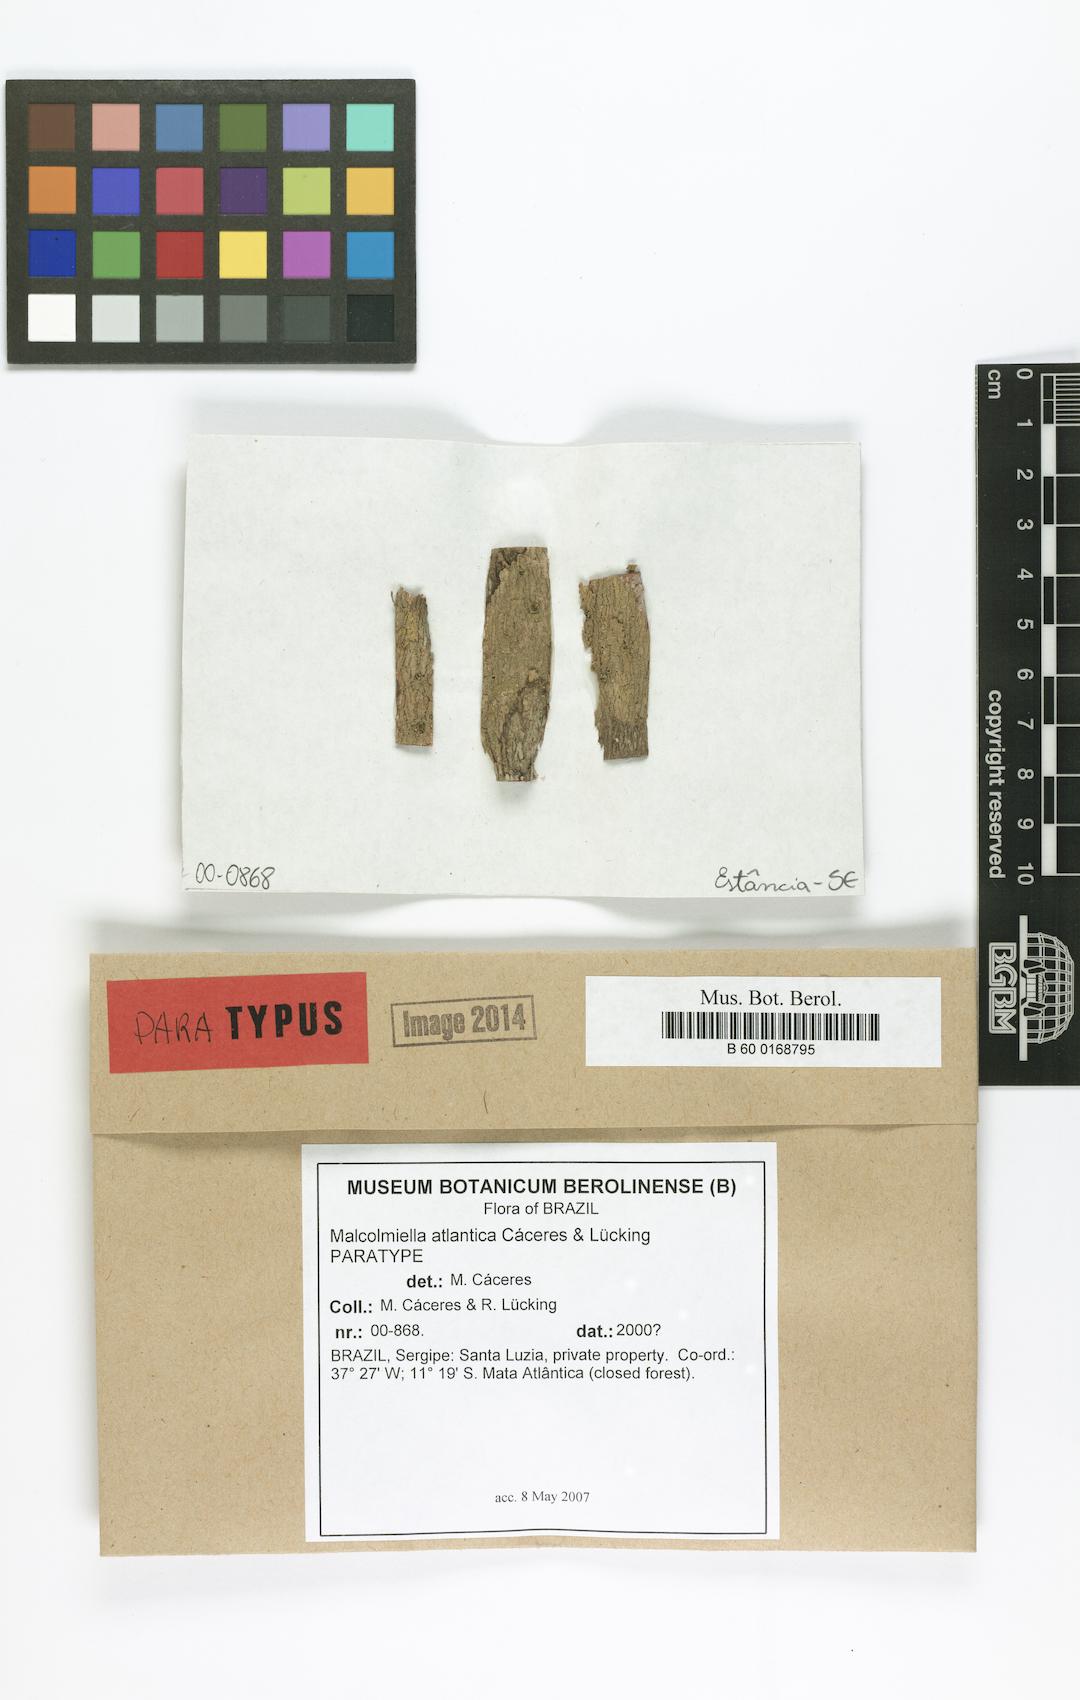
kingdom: Fungi
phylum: Ascomycota
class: Lecanoromycetes
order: Lecanorales
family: Malmideaceae
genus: Malmidea
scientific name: Malmidea atlantica
